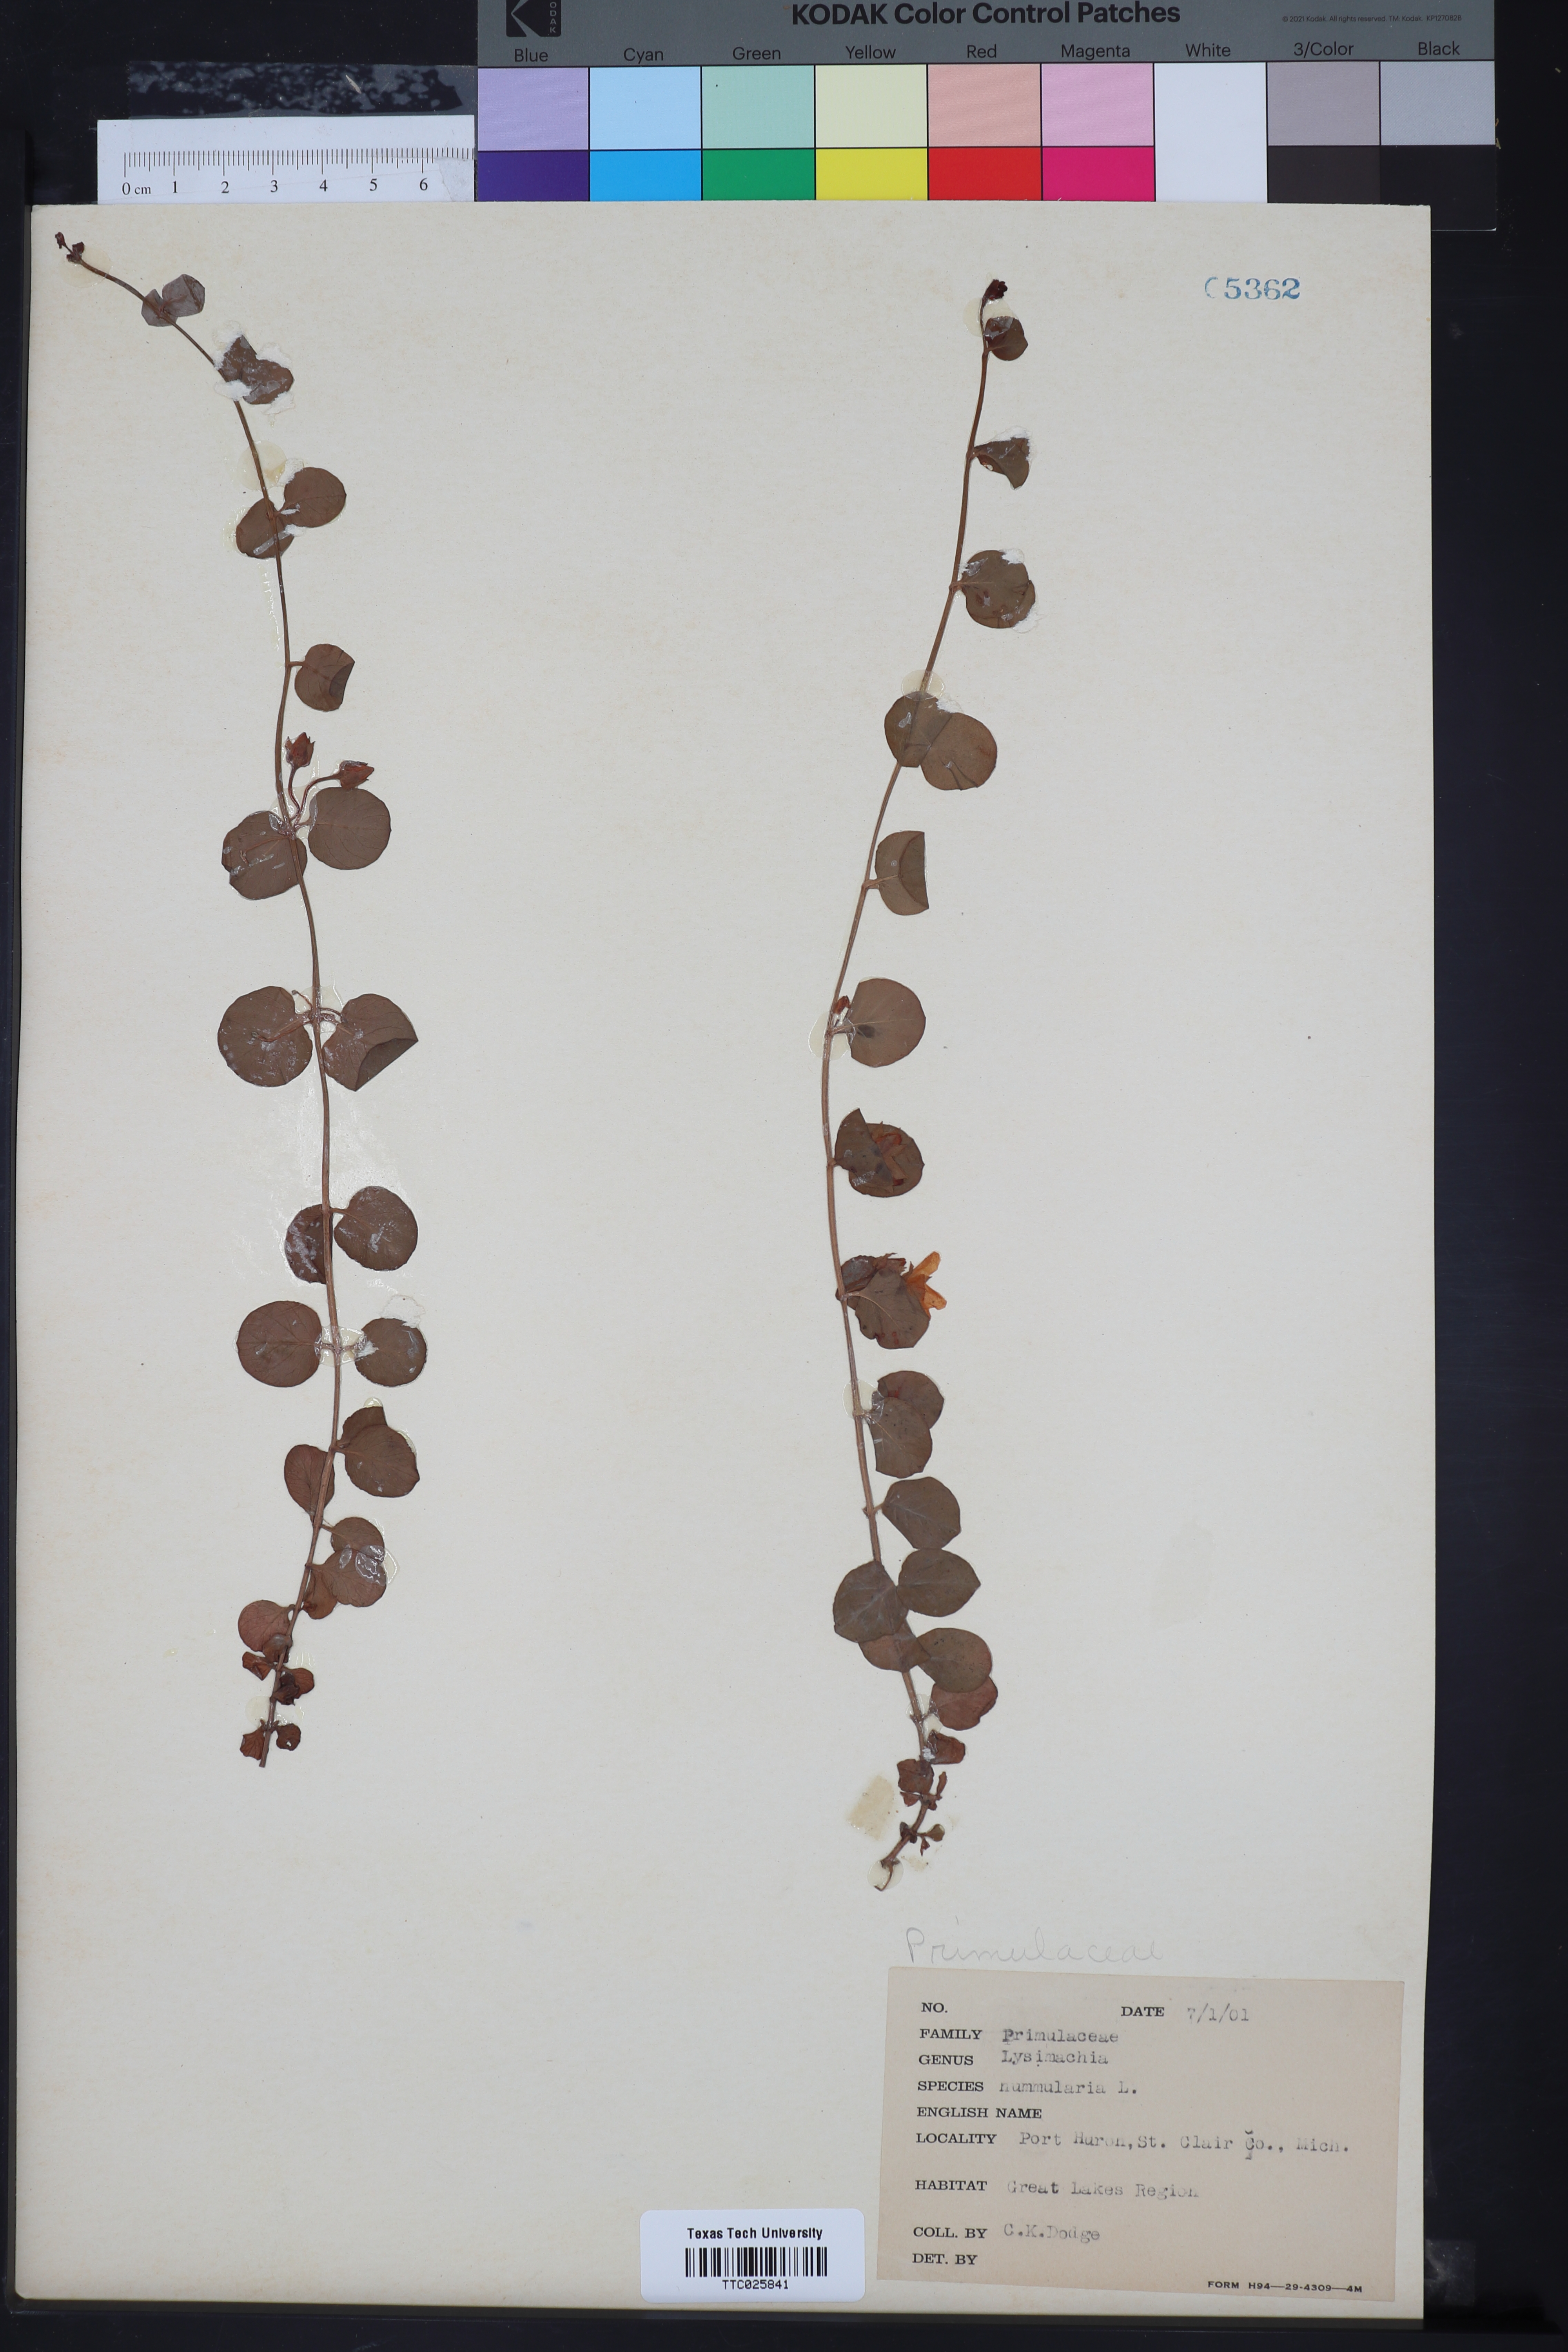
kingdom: Plantae
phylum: Tracheophyta
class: Magnoliopsida
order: Ericales
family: Primulaceae
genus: Lysimachia
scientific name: Lysimachia nummularia
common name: Moneywort
